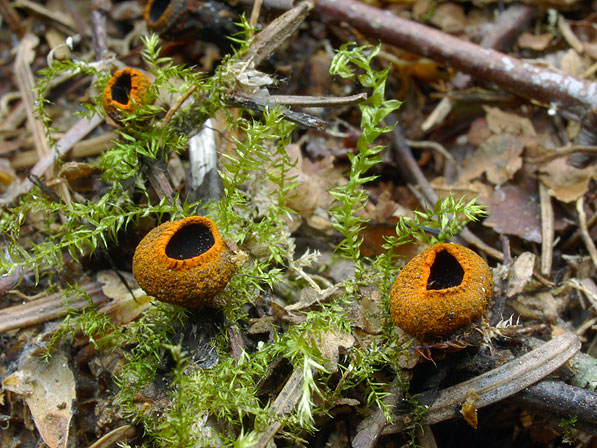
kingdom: Fungi
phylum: Ascomycota
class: Pezizomycetes
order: Pezizales
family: Sarcosomataceae
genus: Plectania
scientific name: Plectania melastoma
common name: rustbæger
